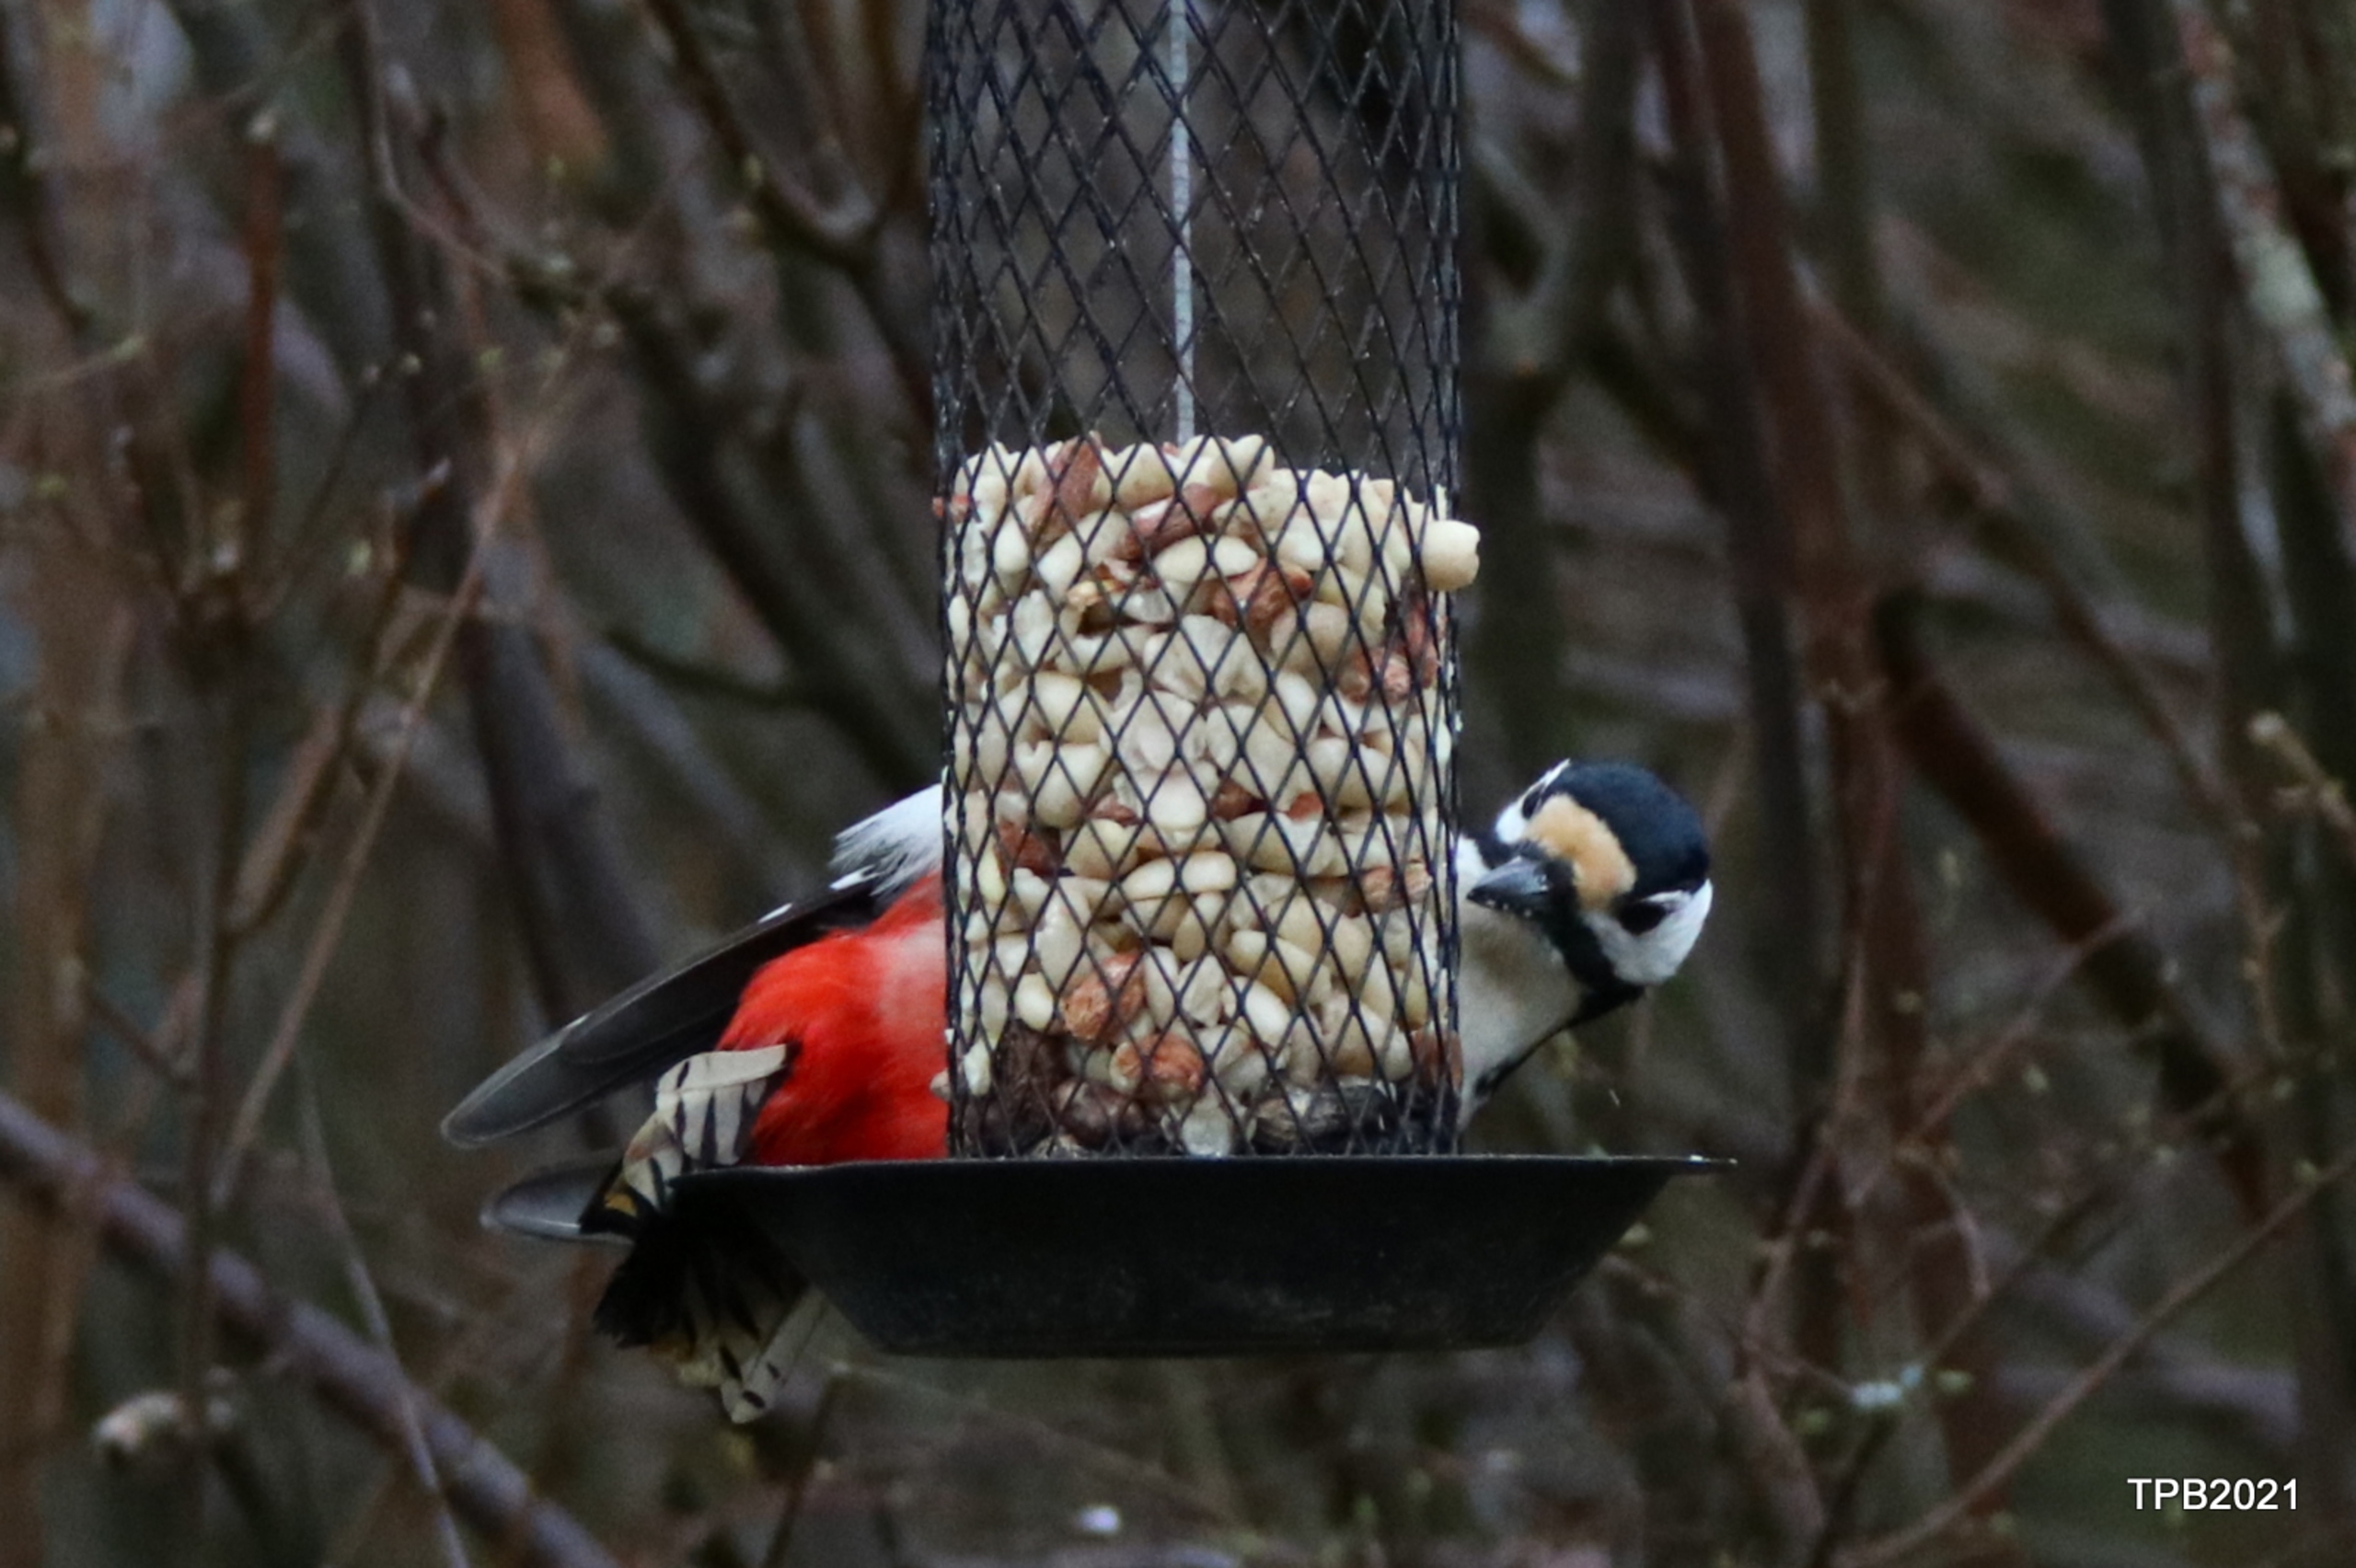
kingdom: Animalia
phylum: Chordata
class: Aves
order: Piciformes
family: Picidae
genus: Dendrocopos
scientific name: Dendrocopos major
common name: Stor flagspætte
